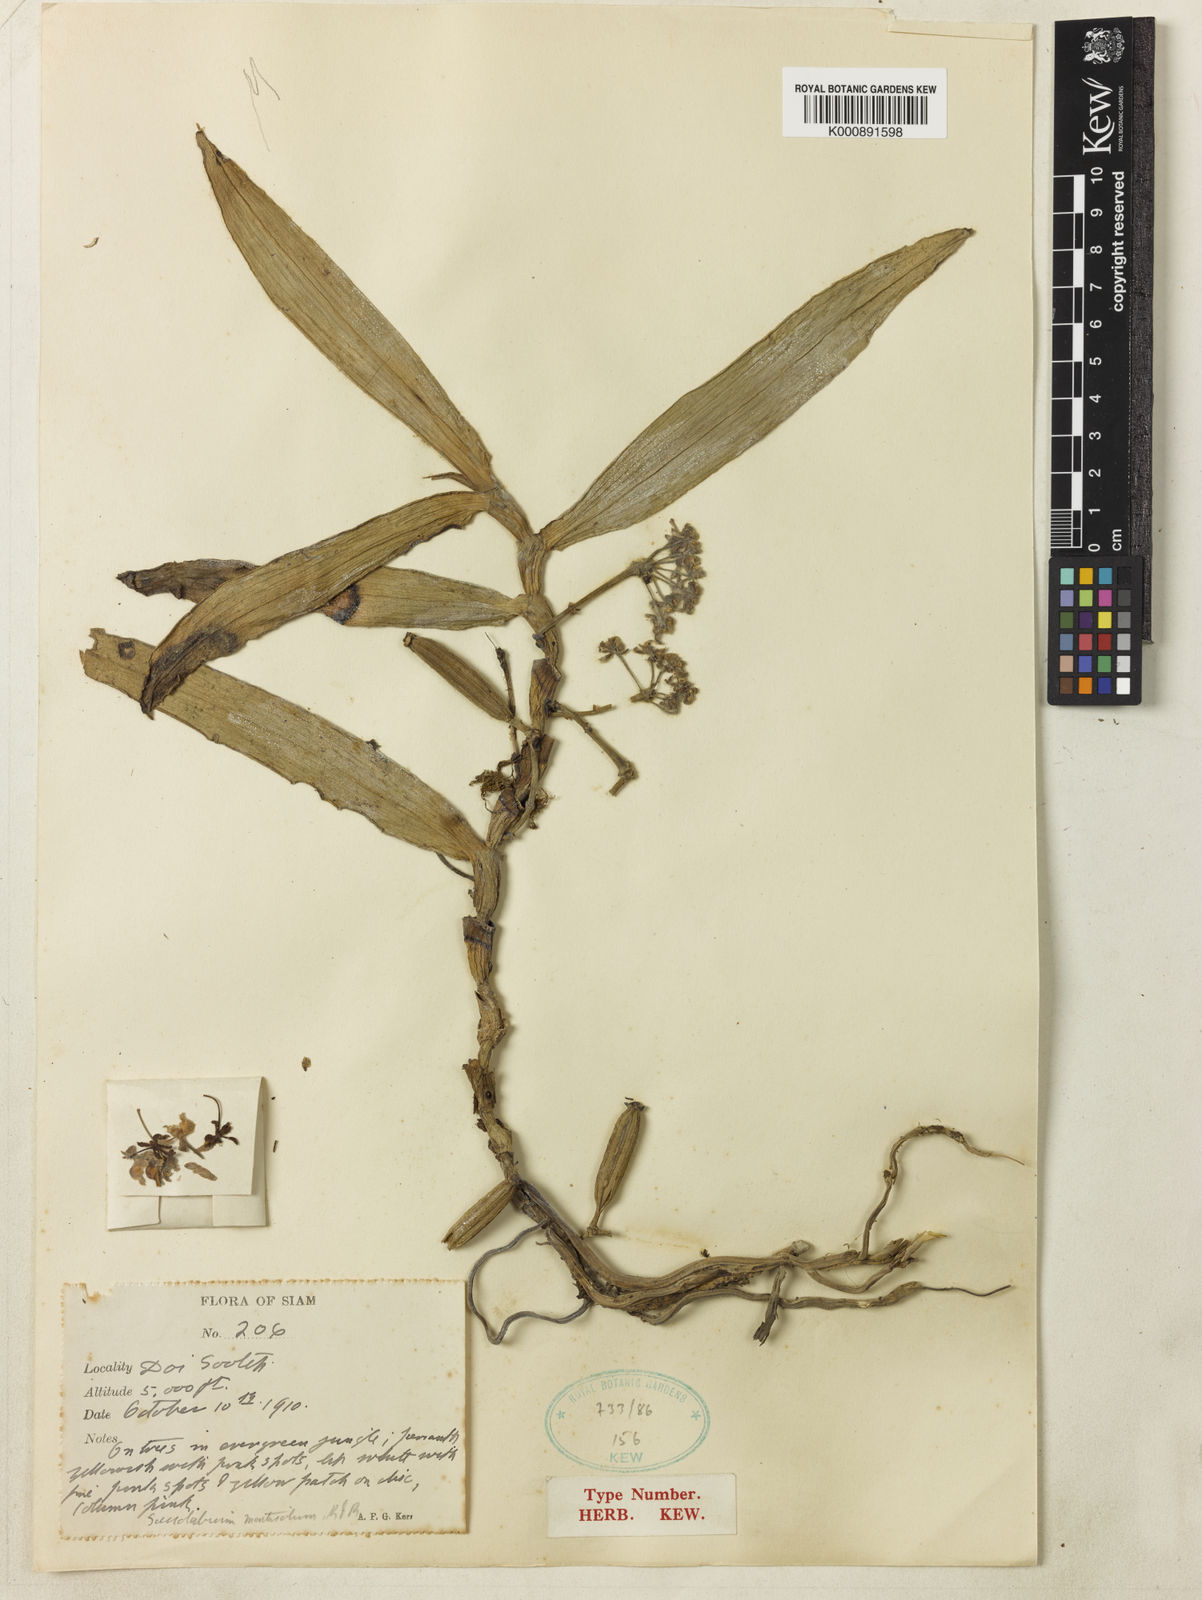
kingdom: Plantae
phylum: Tracheophyta
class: Liliopsida
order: Asparagales
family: Orchidaceae
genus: Gastrochilus
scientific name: Gastrochilus yunnanensis
